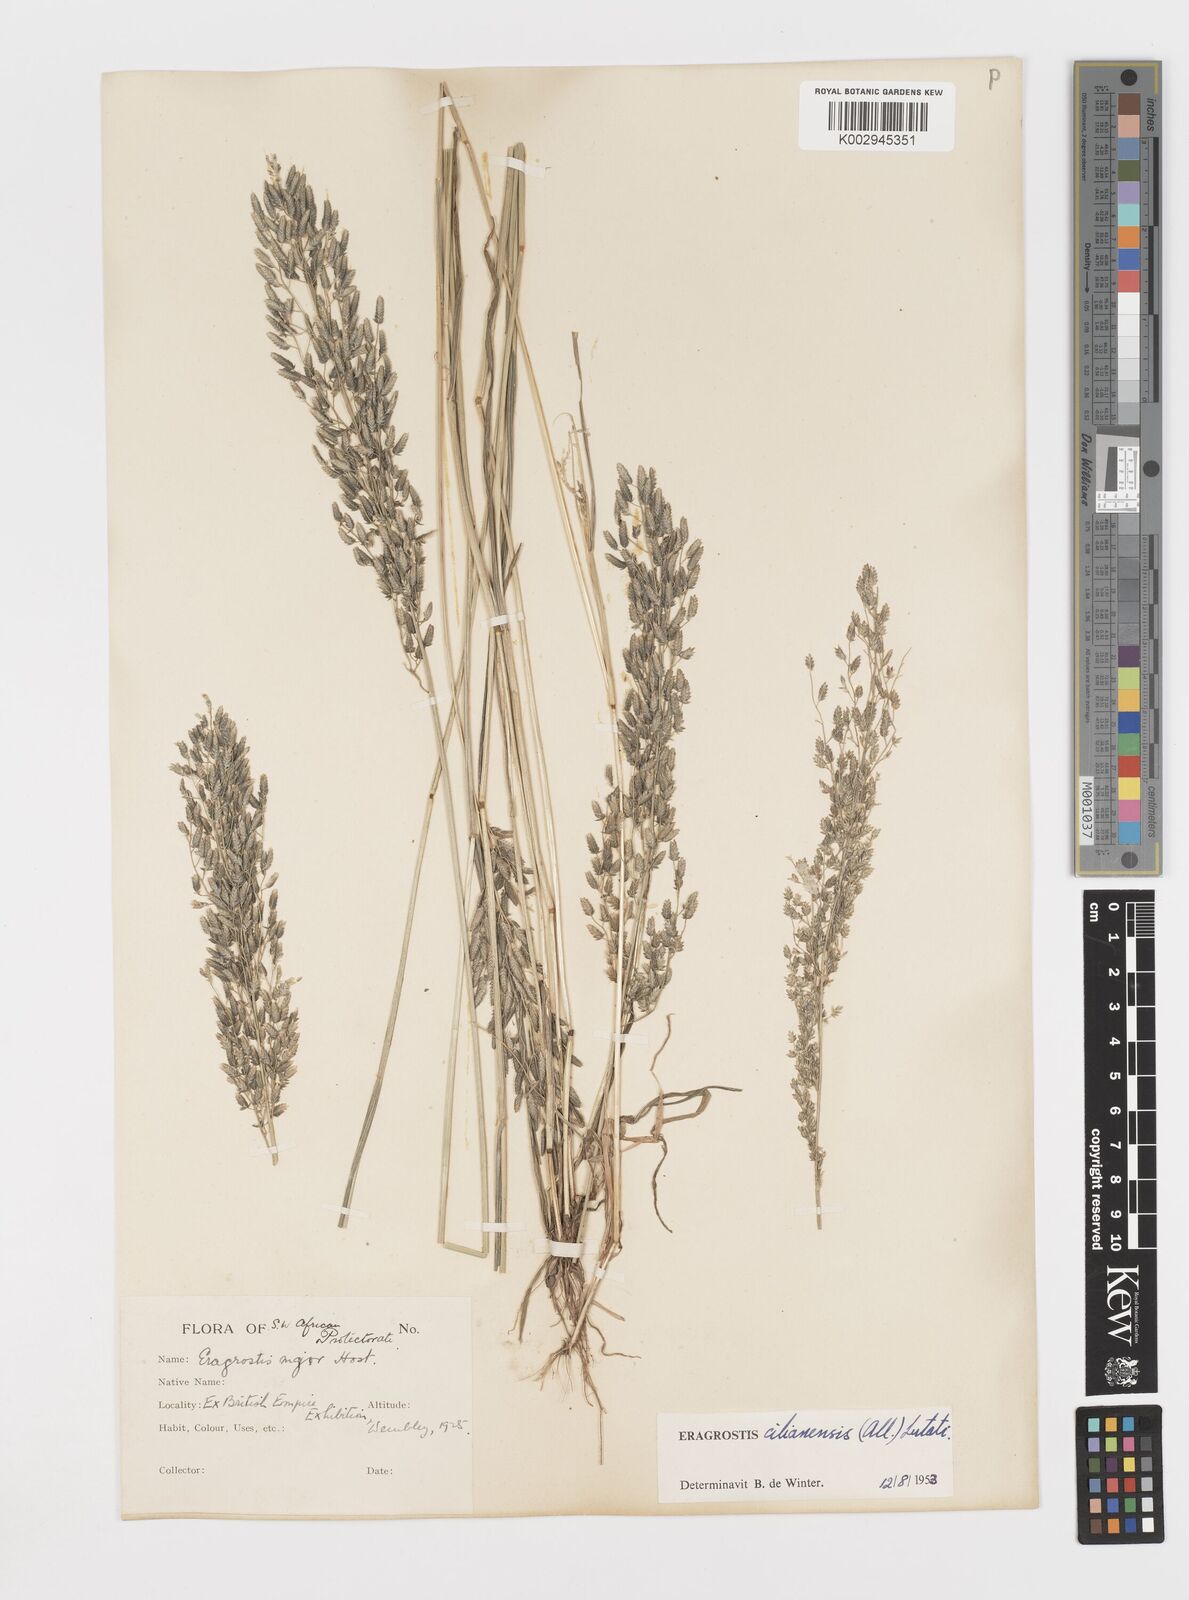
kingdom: Plantae
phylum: Tracheophyta
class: Liliopsida
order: Poales
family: Poaceae
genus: Eragrostis
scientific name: Eragrostis cilianensis
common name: Stinkgrass
